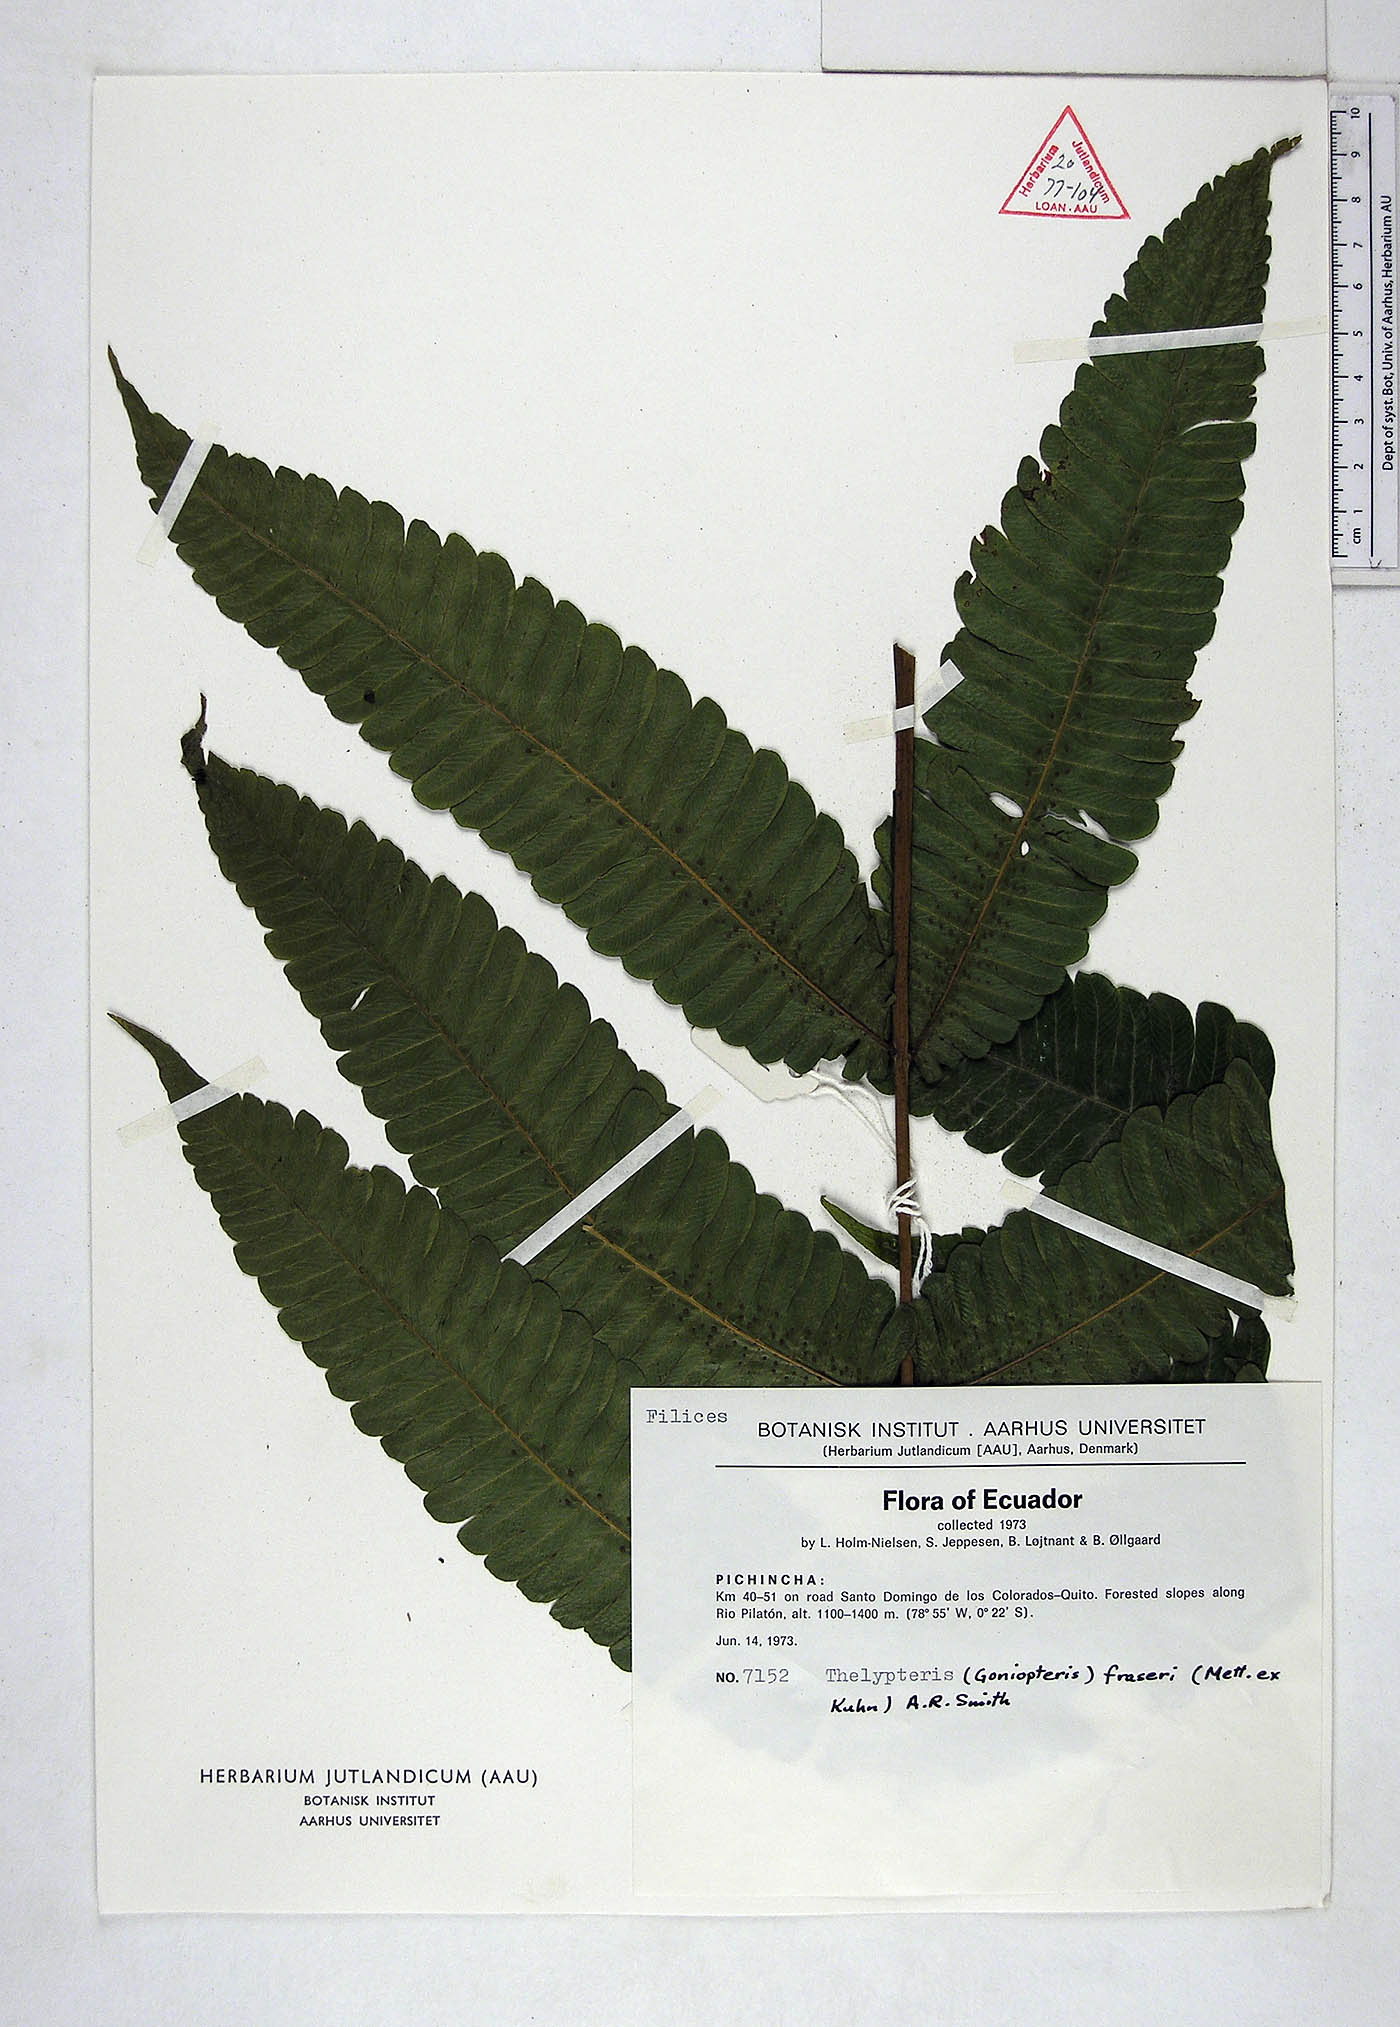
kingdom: Plantae
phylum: Tracheophyta
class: Polypodiopsida
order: Polypodiales
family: Thelypteridaceae
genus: Goniopteris
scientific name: Goniopteris fraseri
